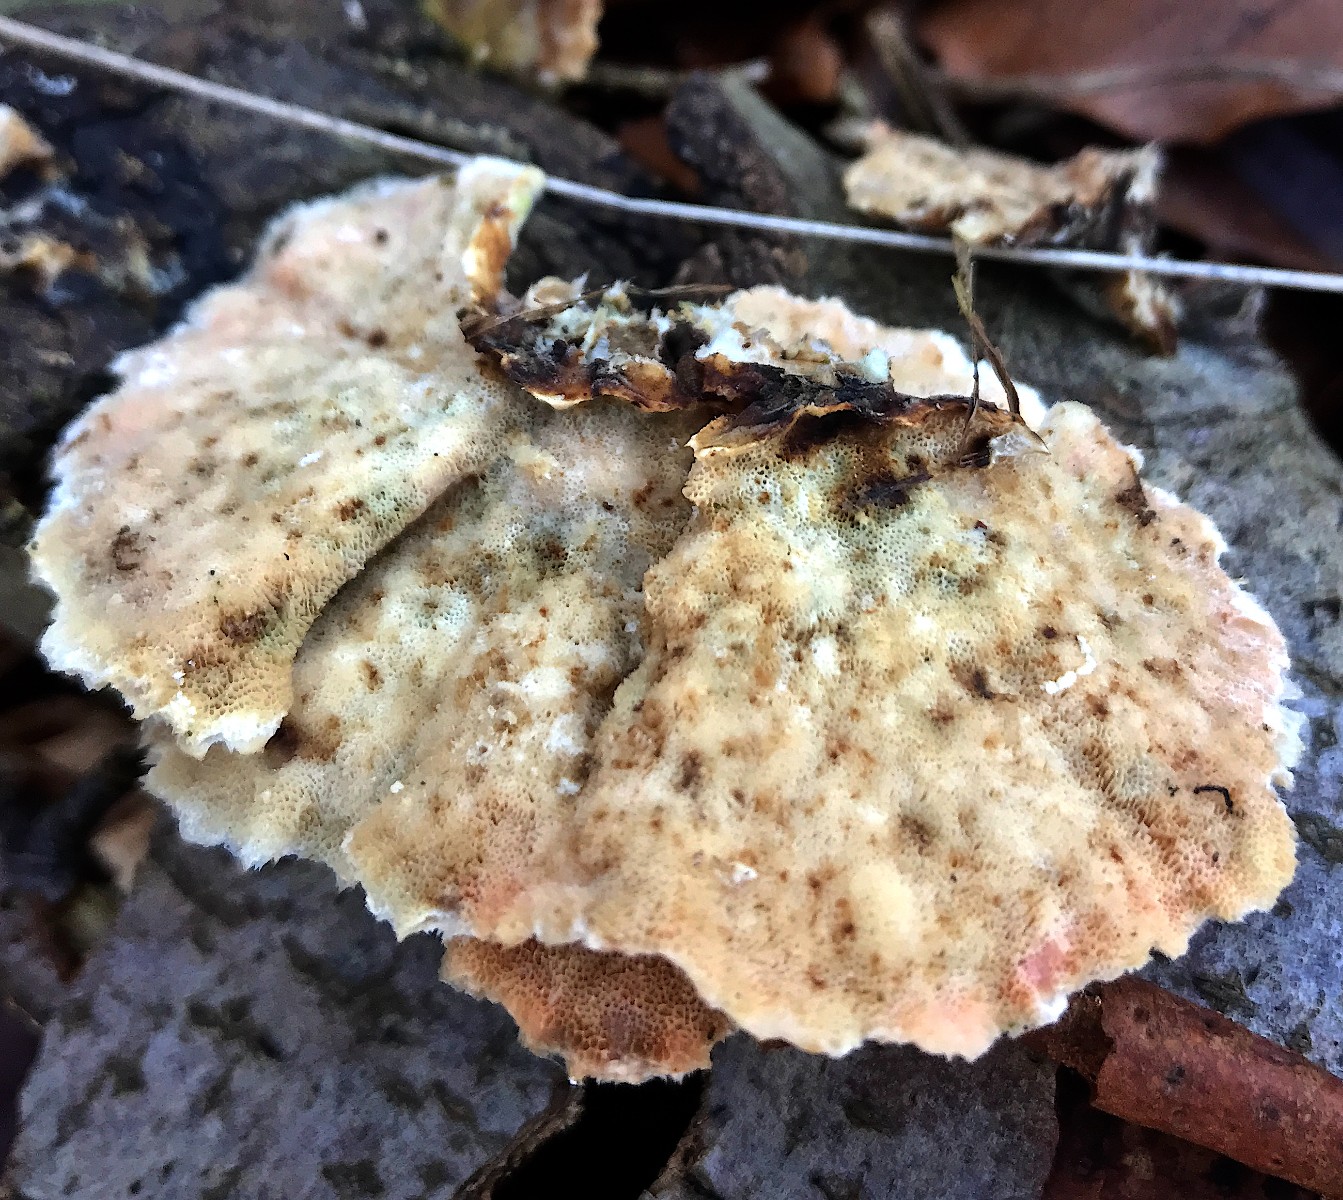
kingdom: Fungi
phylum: Basidiomycota
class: Agaricomycetes
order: Polyporales
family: Polyporaceae
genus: Trametes
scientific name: Trametes versicolor
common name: broget læderporesvamp
